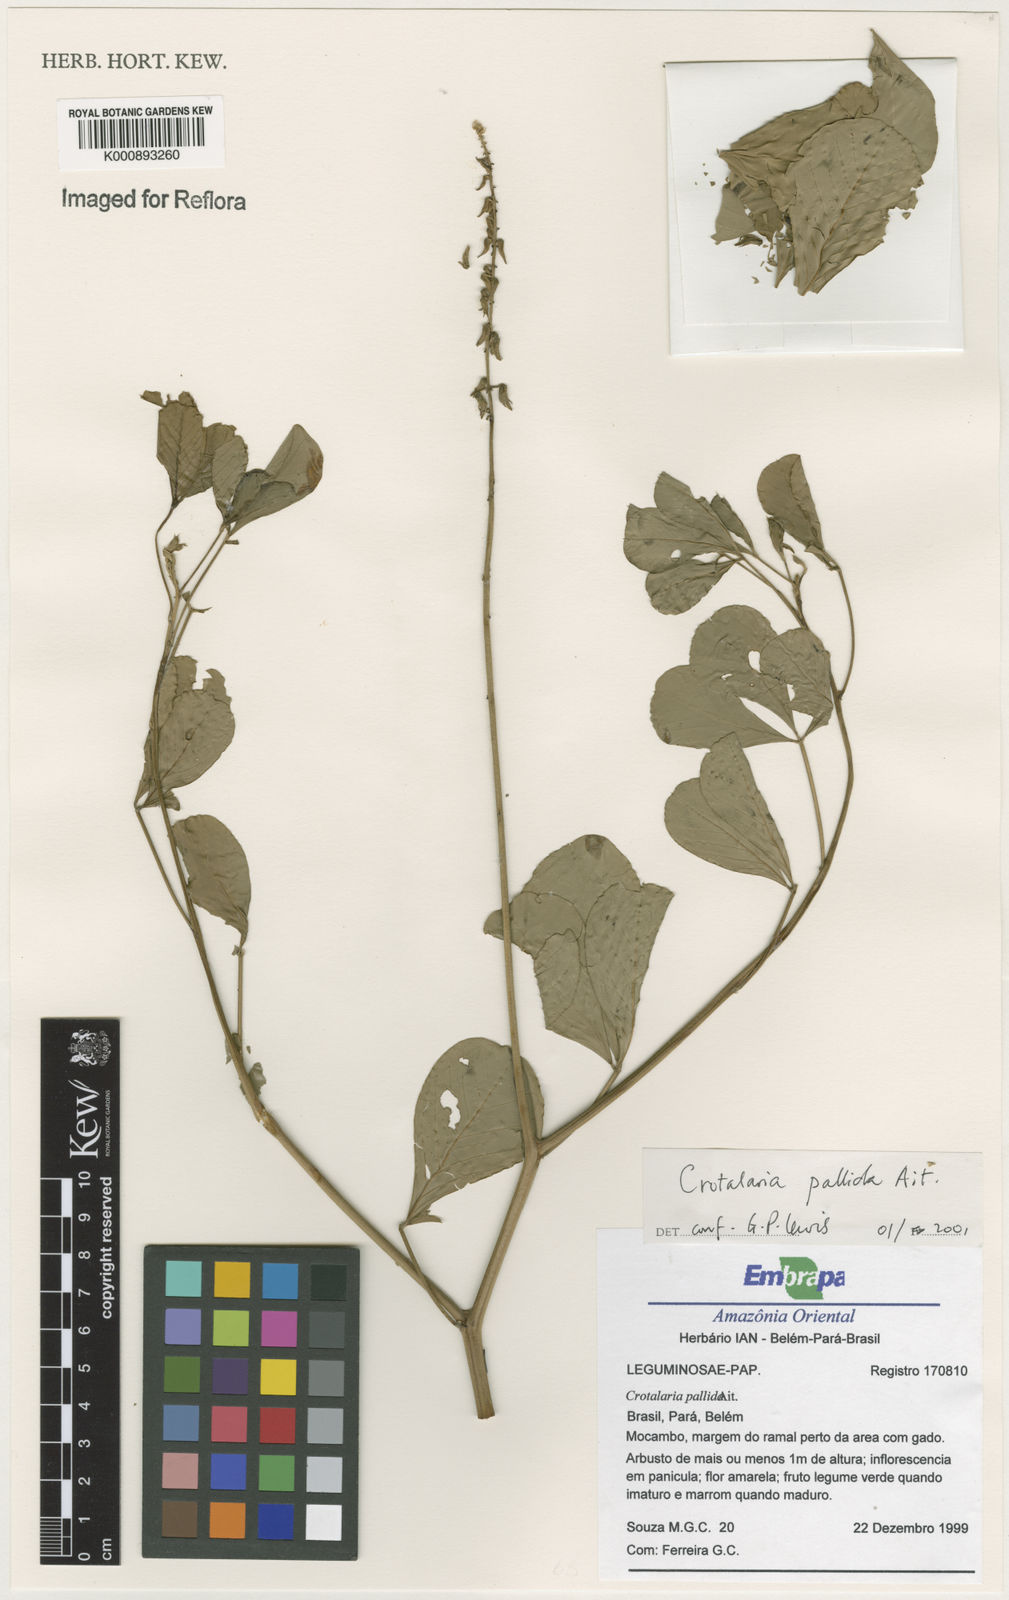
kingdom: Plantae
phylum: Tracheophyta
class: Magnoliopsida
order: Fabales
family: Fabaceae
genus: Crotalaria
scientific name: Crotalaria pallida
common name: Smooth rattlebox
